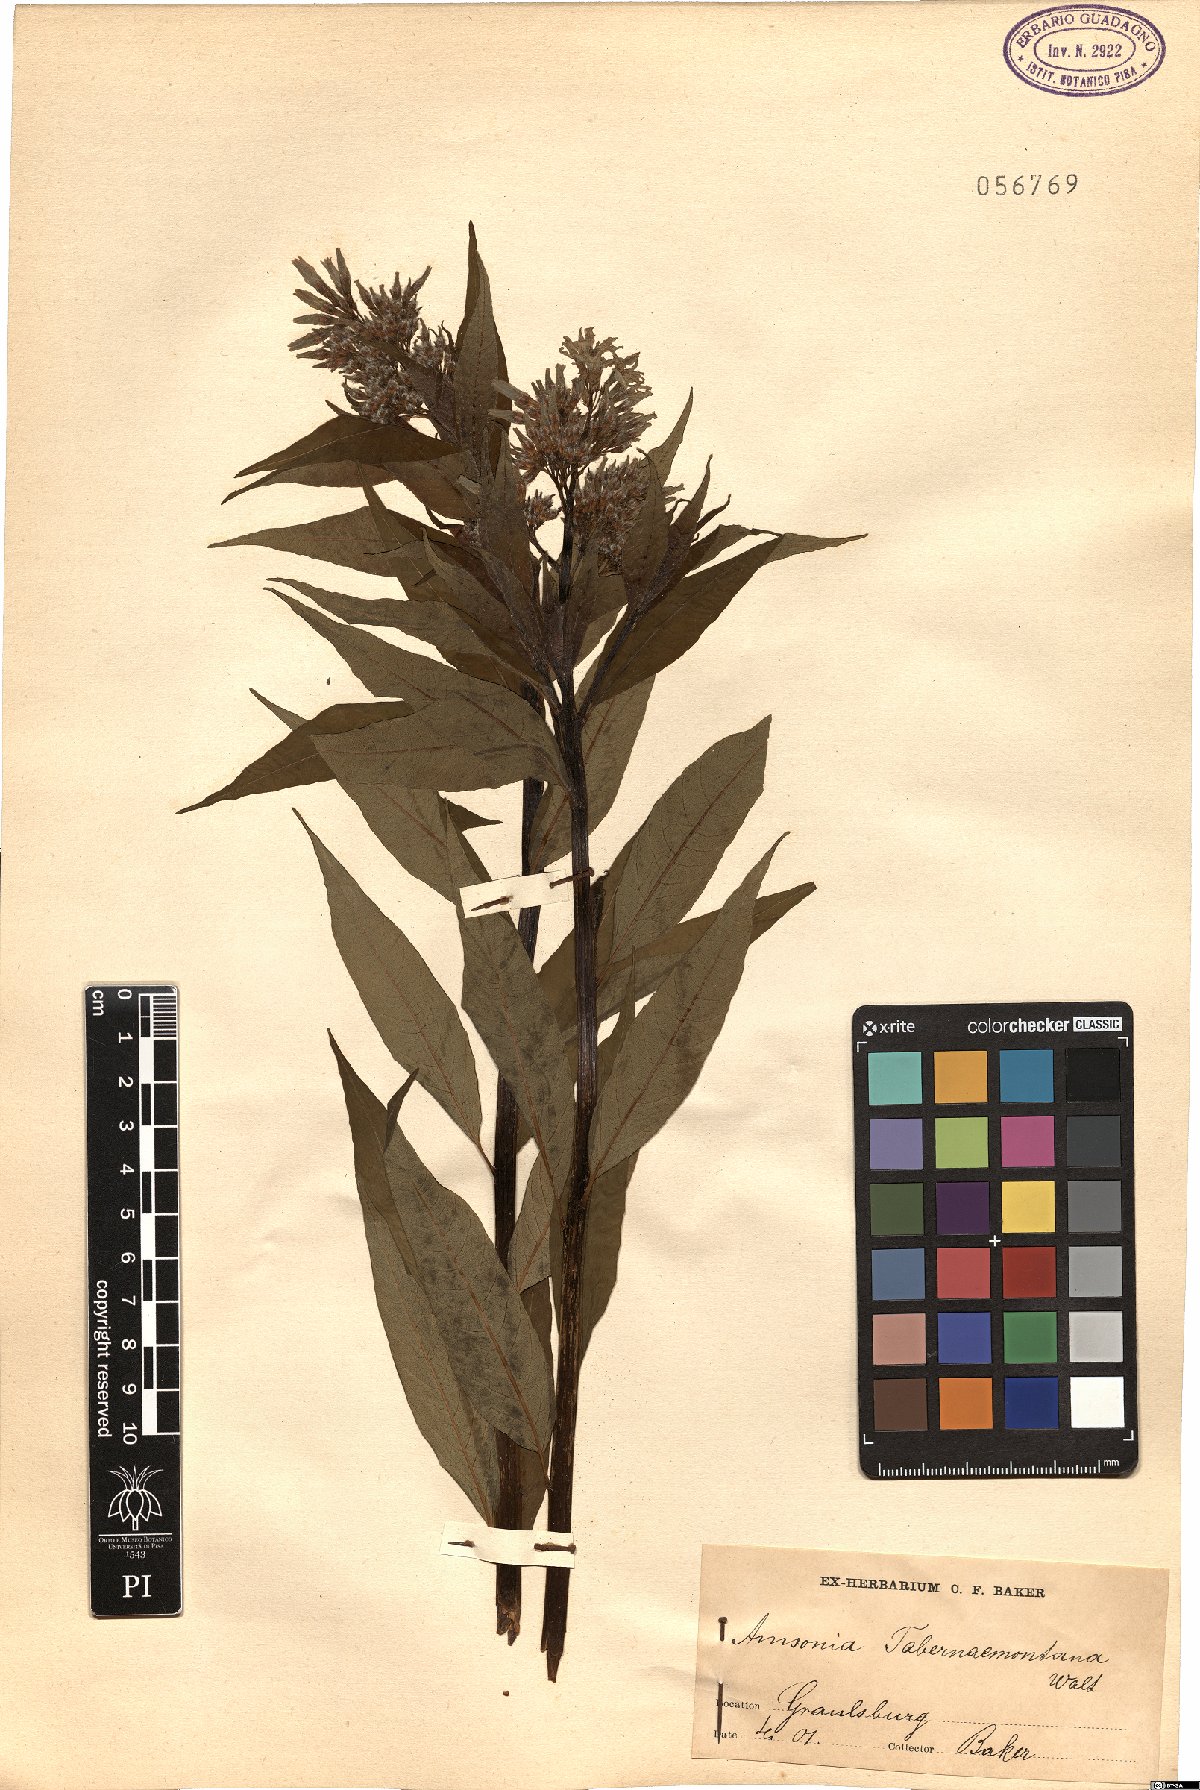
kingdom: Plantae
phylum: Tracheophyta
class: Magnoliopsida
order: Gentianales
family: Apocynaceae
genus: Amsonia
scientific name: Amsonia tabernaemontana
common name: Texas-star
